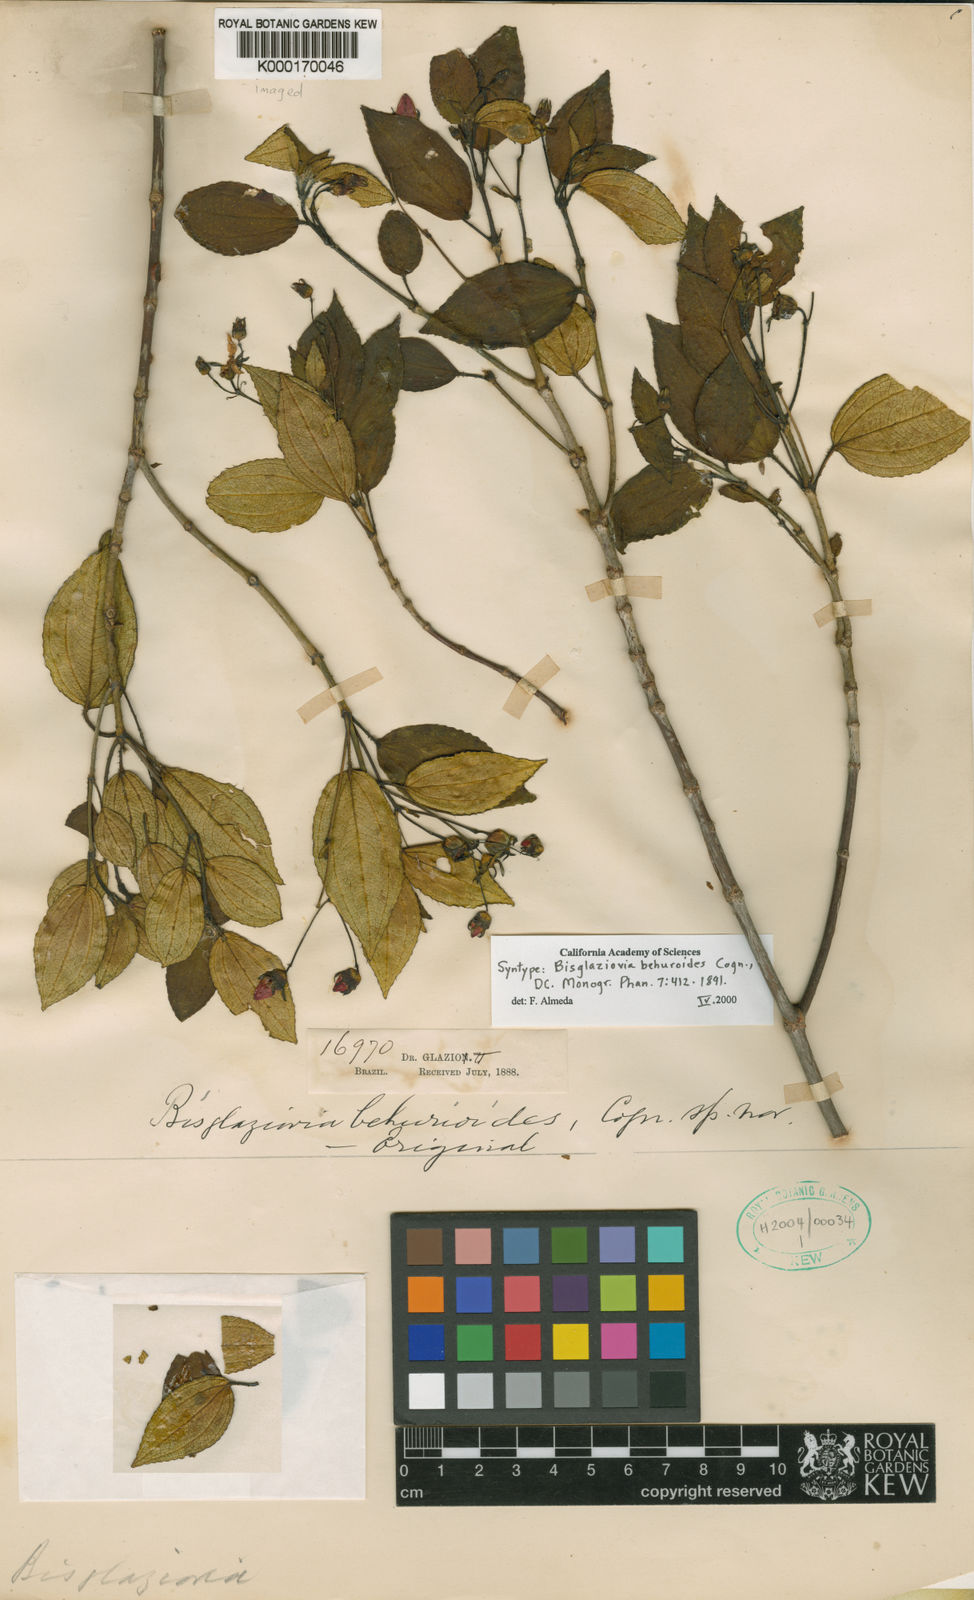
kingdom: Plantae
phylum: Tracheophyta
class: Magnoliopsida
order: Myrtales
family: Melastomataceae
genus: Huberia
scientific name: Huberia mourae
